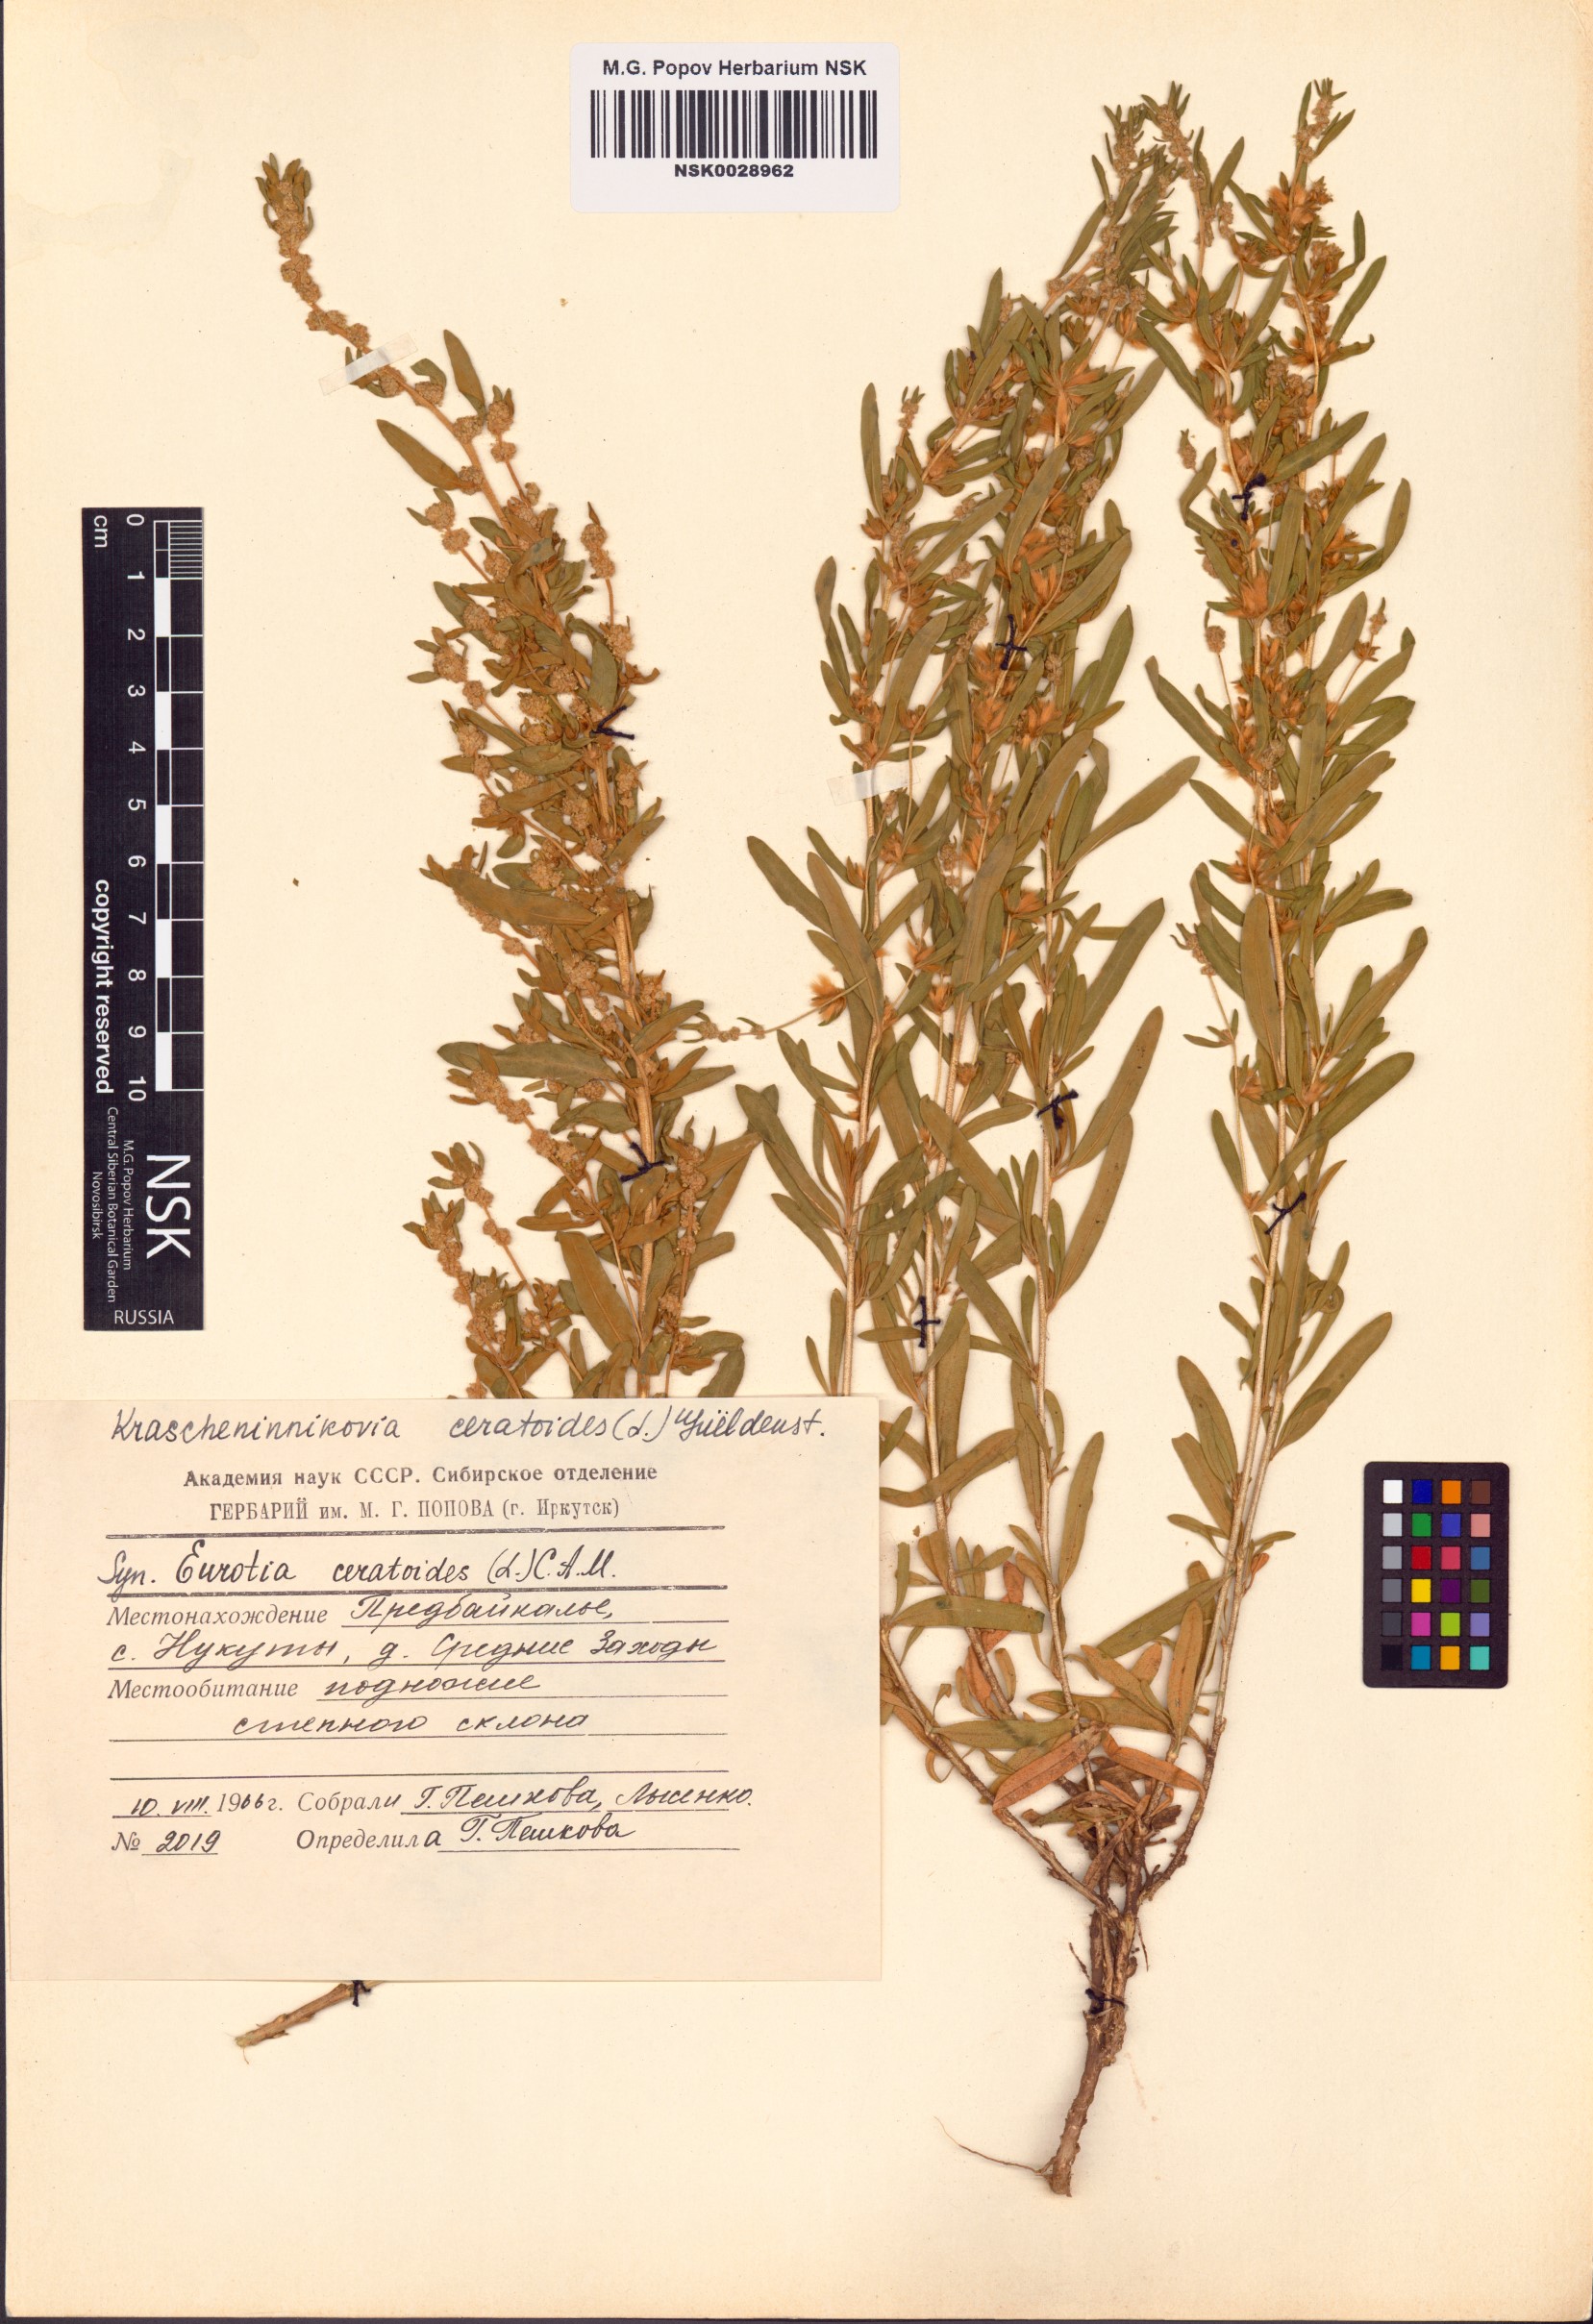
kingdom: Plantae
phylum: Tracheophyta
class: Magnoliopsida
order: Caryophyllales
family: Amaranthaceae
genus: Krascheninnikovia
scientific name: Krascheninnikovia ceratoides
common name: Pamirian winterfat
